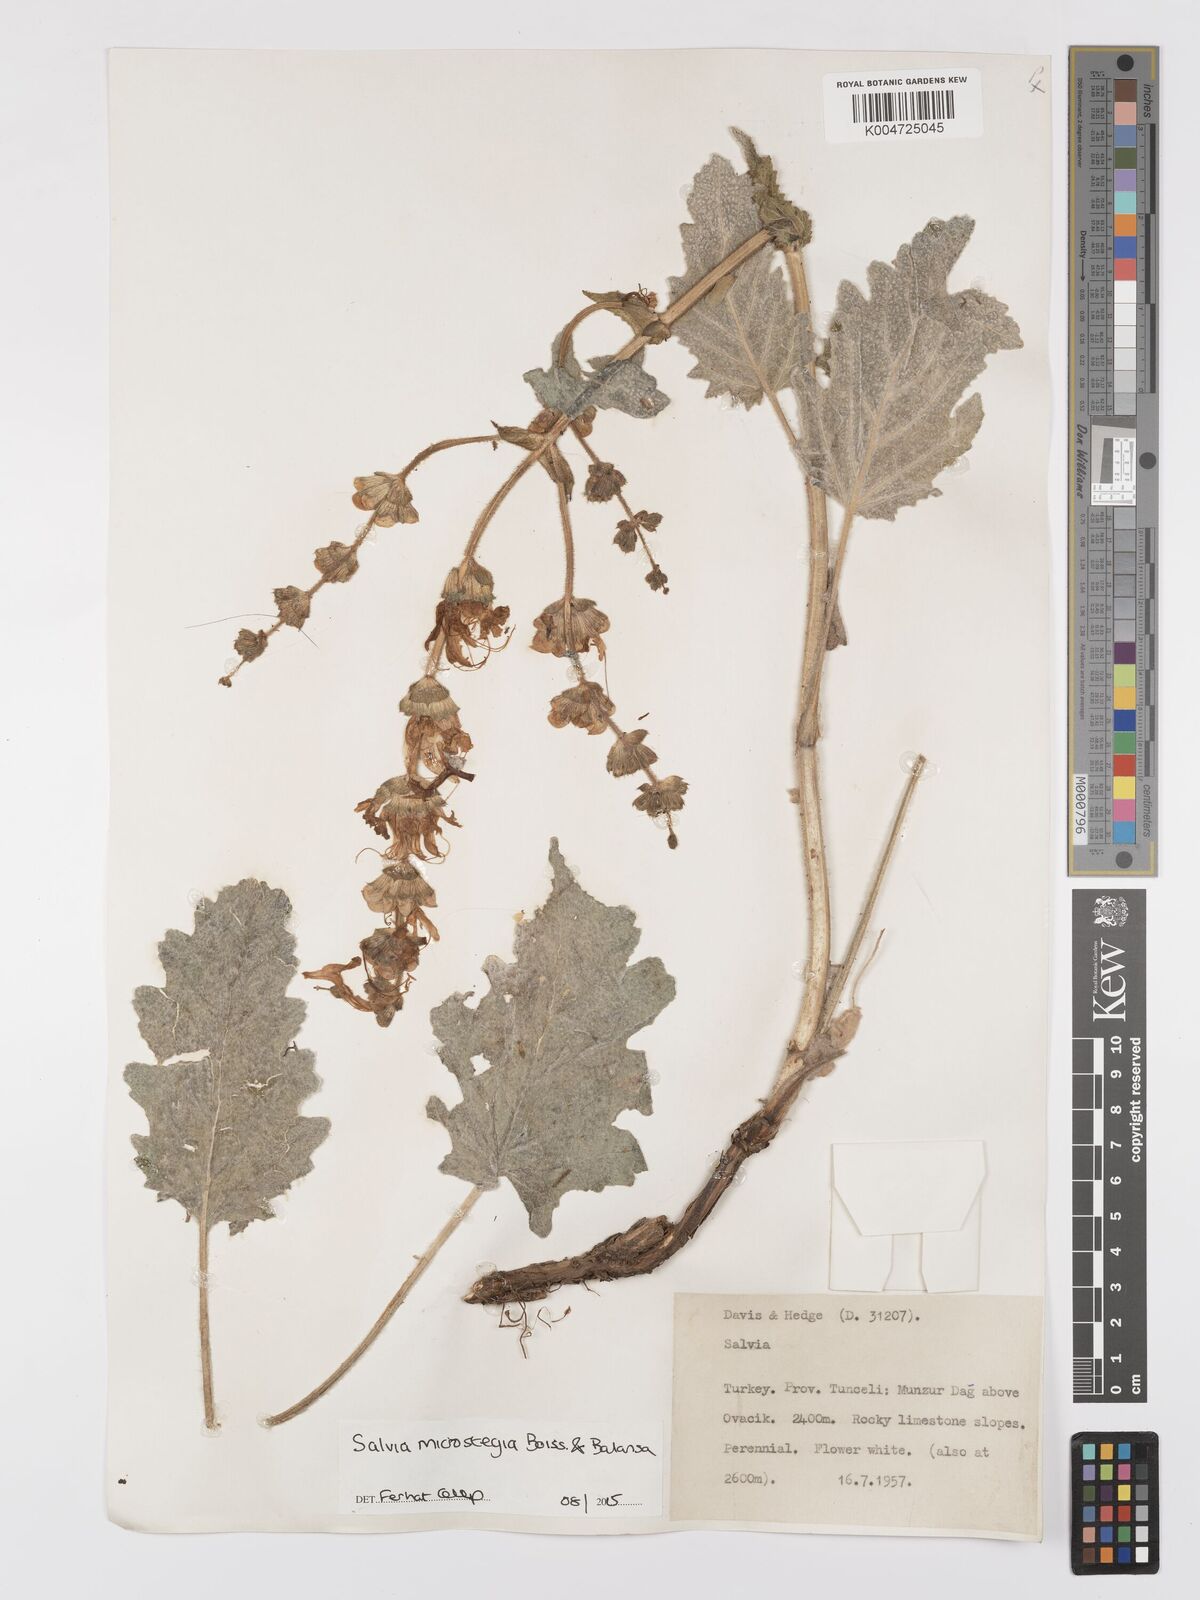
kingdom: Plantae
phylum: Tracheophyta
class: Magnoliopsida
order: Lamiales
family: Lamiaceae
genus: Salvia
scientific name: Salvia microstegia
